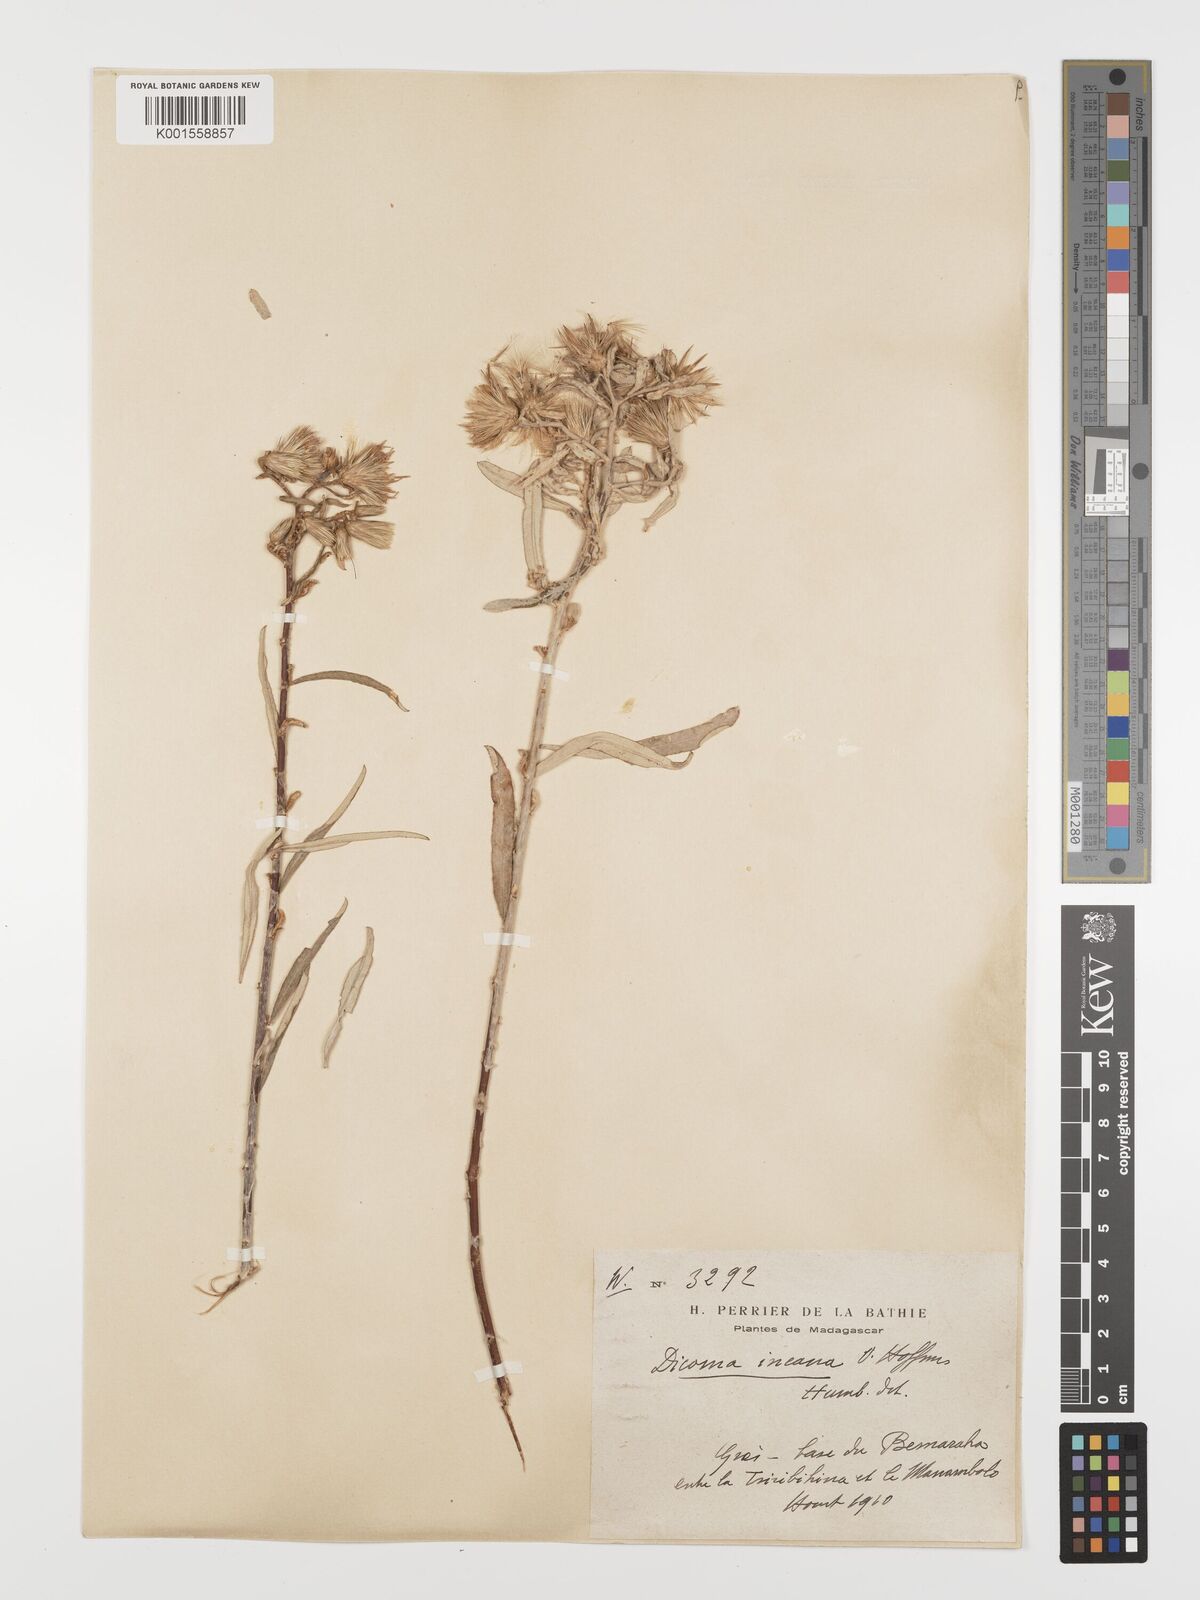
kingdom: Plantae
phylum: Tracheophyta
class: Magnoliopsida
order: Asterales
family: Asteraceae
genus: Dicoma
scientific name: Dicoma incana
